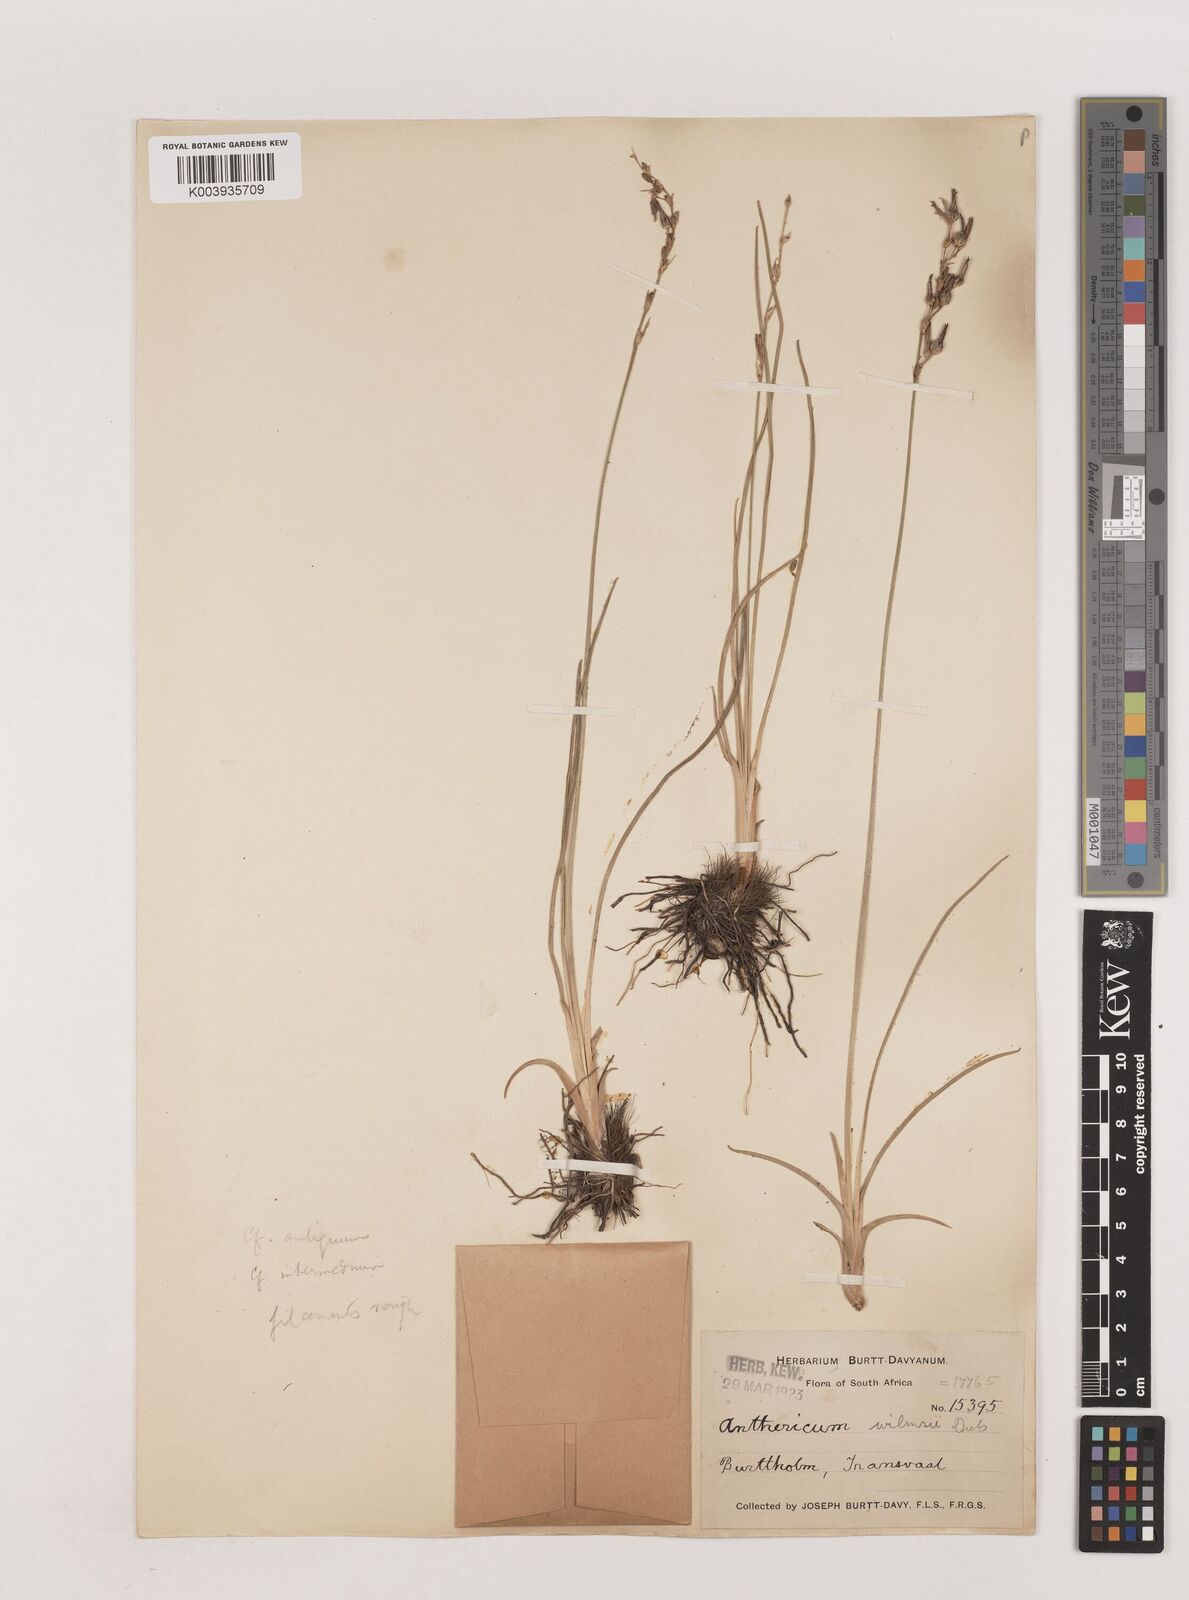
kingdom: Plantae
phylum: Tracheophyta
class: Liliopsida
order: Asparagales
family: Asparagaceae
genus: Chlorophytum
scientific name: Chlorophytum fasciculatum
